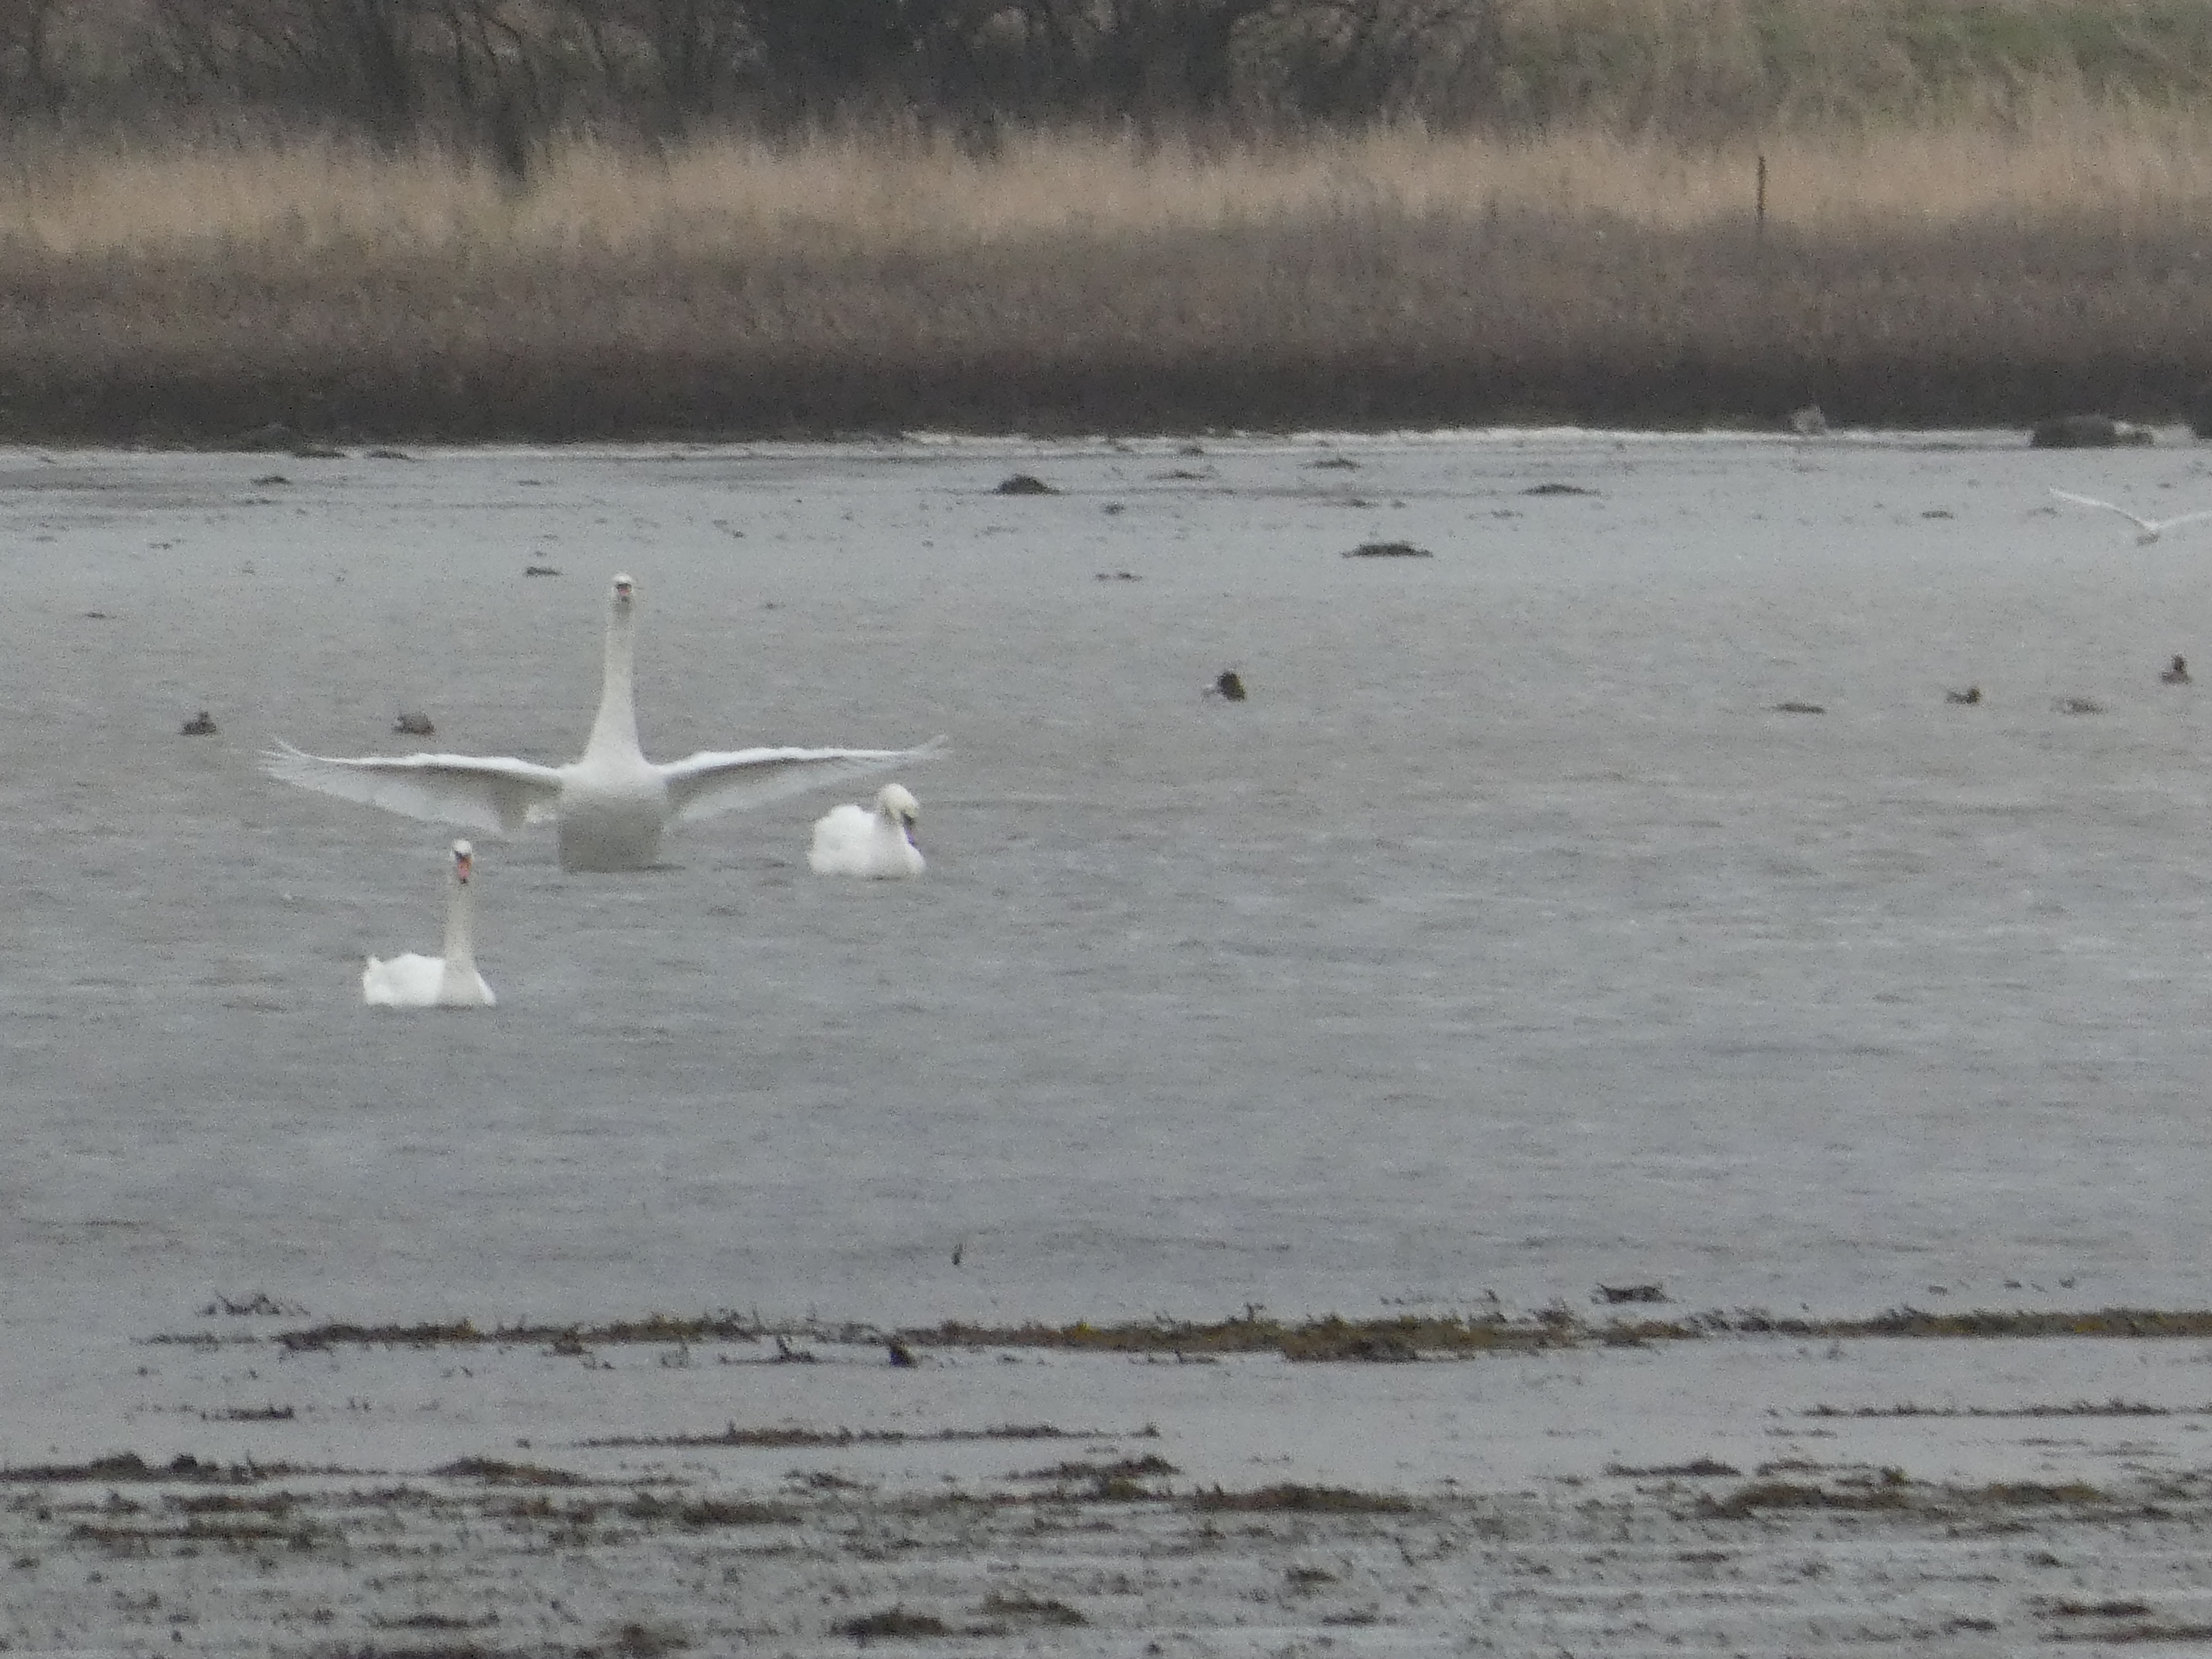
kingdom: Animalia
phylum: Chordata
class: Aves
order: Anseriformes
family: Anatidae
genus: Cygnus
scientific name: Cygnus olor
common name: Knopsvane
